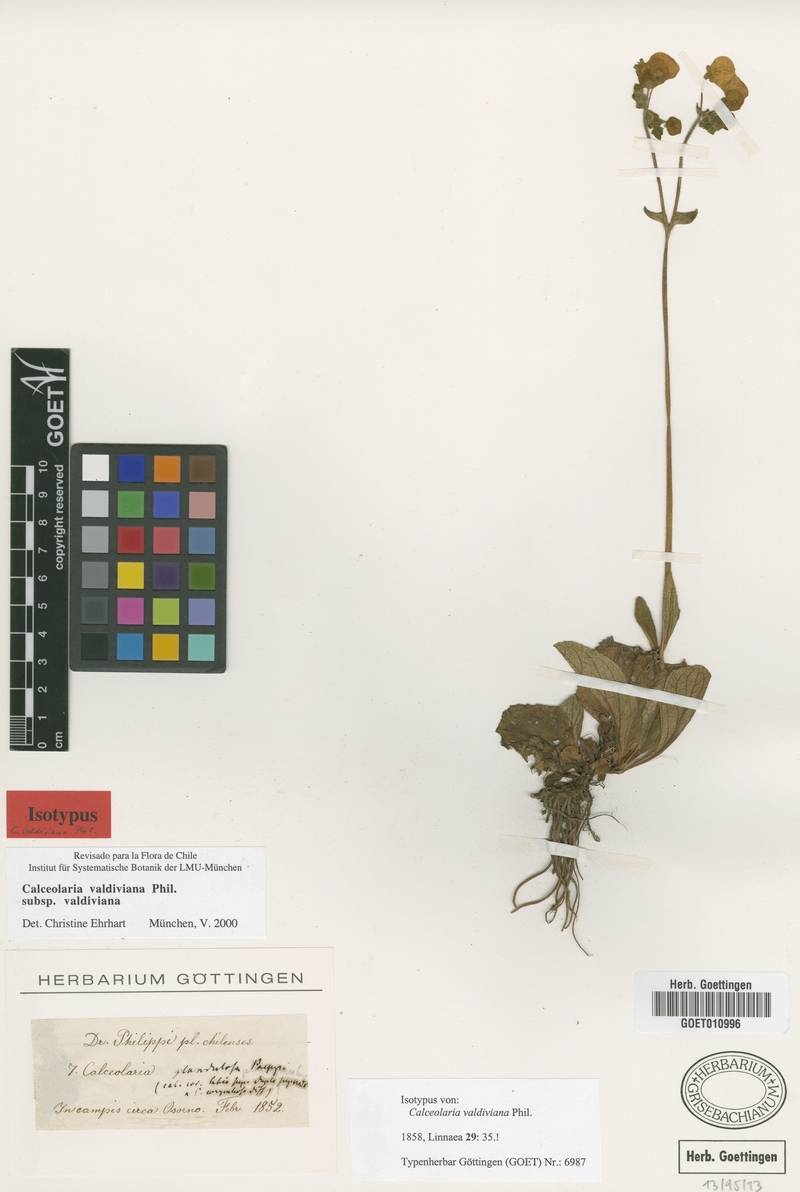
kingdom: Plantae
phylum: Tracheophyta
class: Magnoliopsida
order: Lamiales
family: Calceolariaceae
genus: Calceolaria
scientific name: Calceolaria valdiviana
